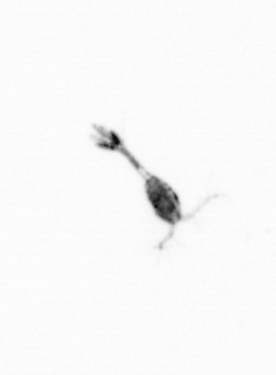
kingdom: Animalia
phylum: Arthropoda
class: Copepoda
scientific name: Copepoda
